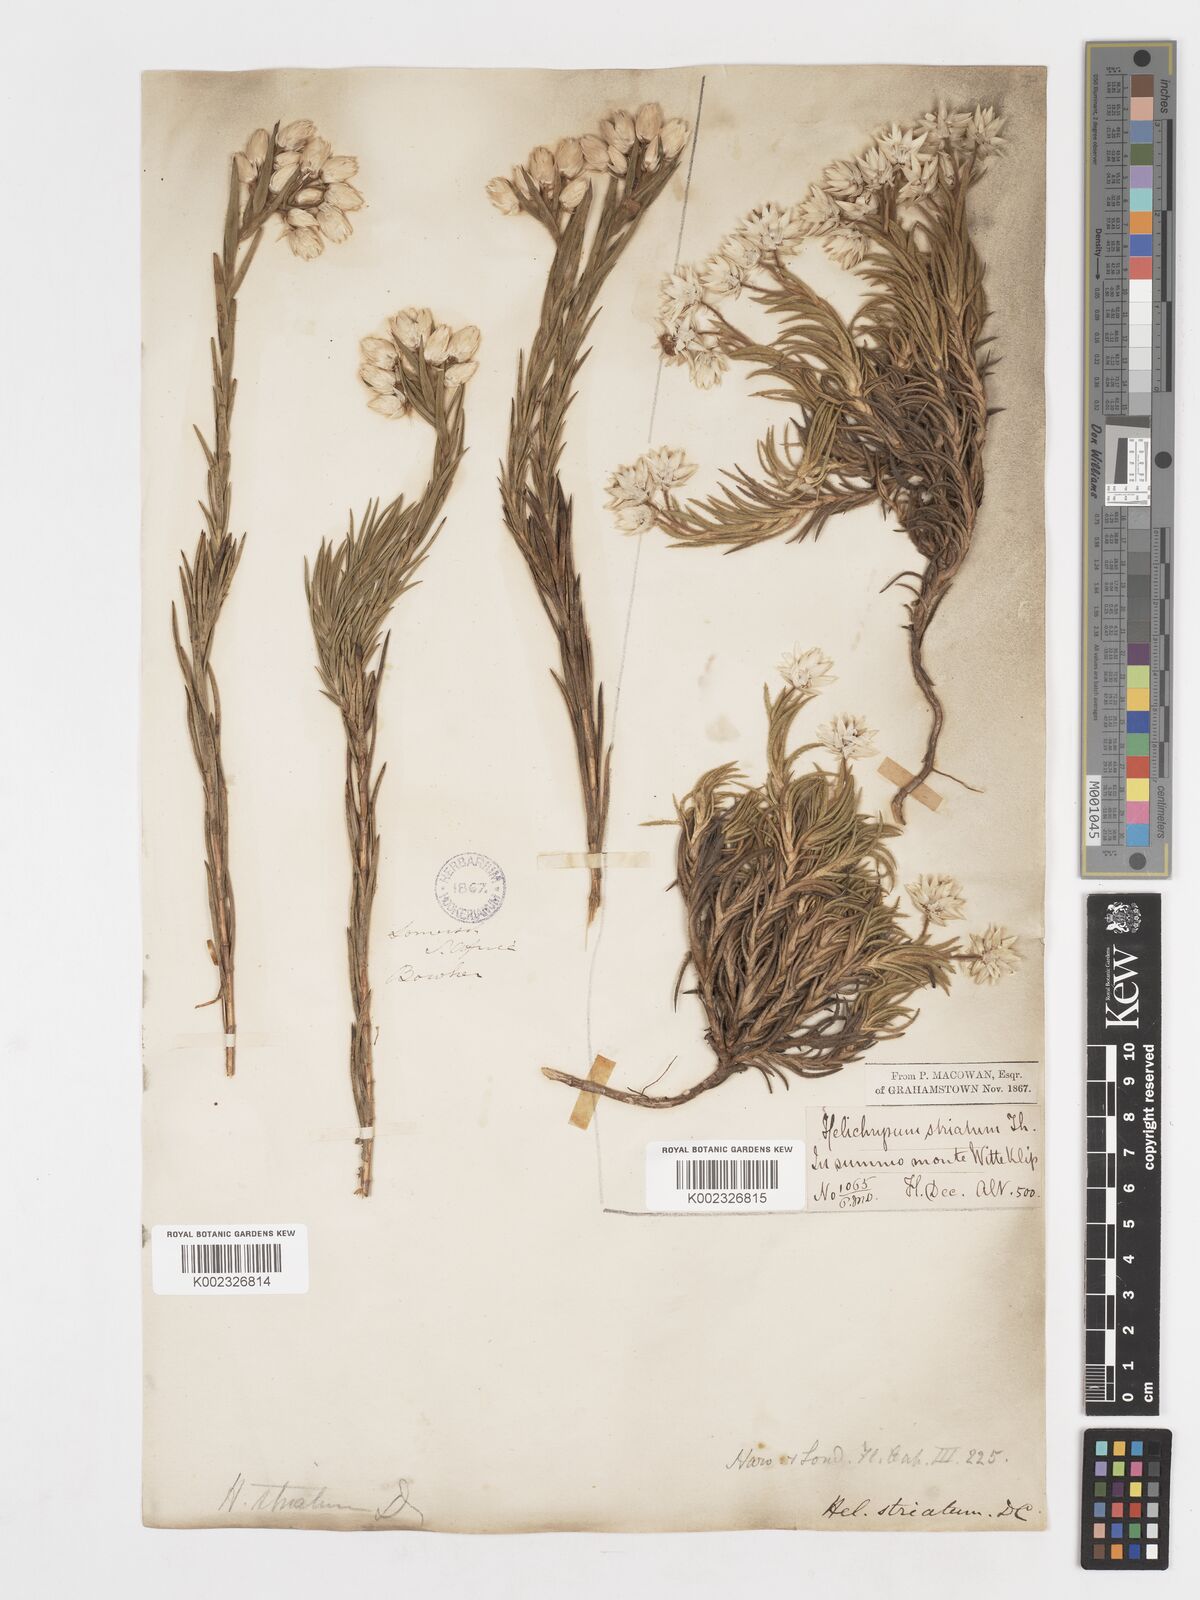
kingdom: Plantae
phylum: Tracheophyta
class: Magnoliopsida
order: Asterales
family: Asteraceae
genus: Achyranthemum
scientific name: Achyranthemum striatum
